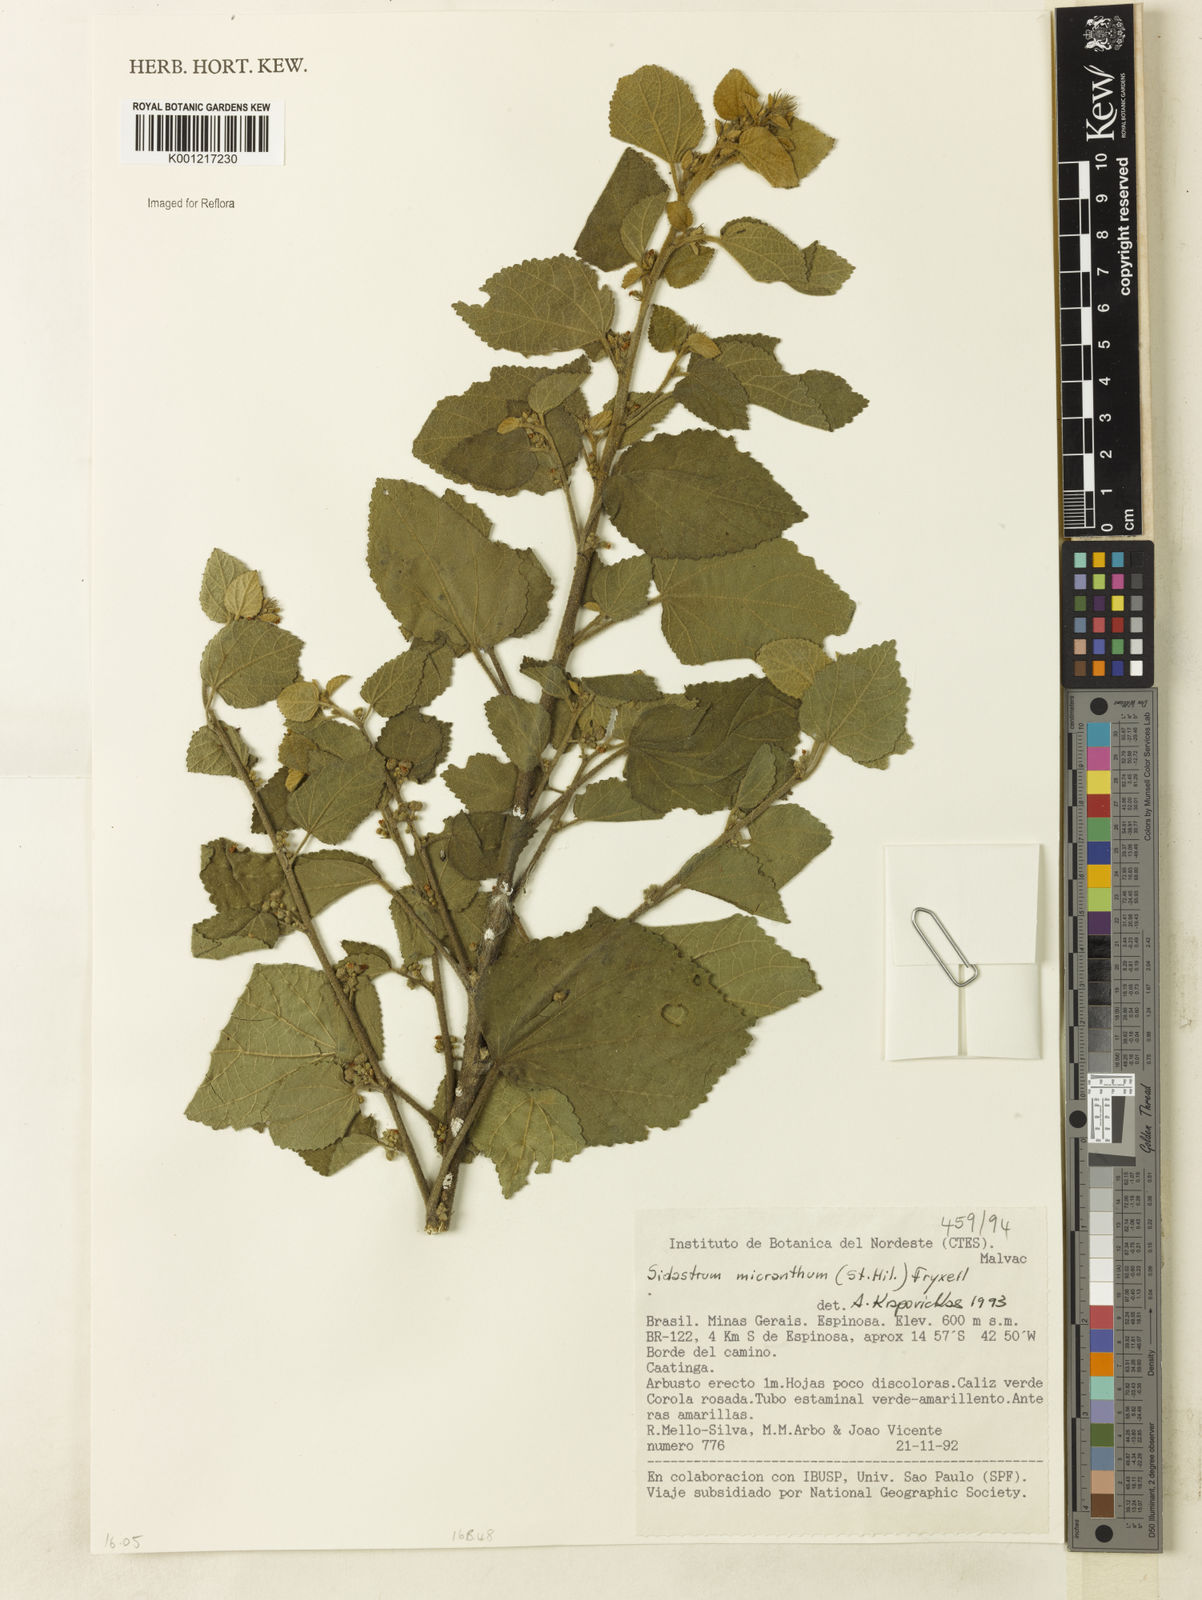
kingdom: Plantae
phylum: Tracheophyta
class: Magnoliopsida
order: Malvales
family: Malvaceae
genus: Sidastrum
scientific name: Sidastrum micranthum
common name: Dainty sandmallow
